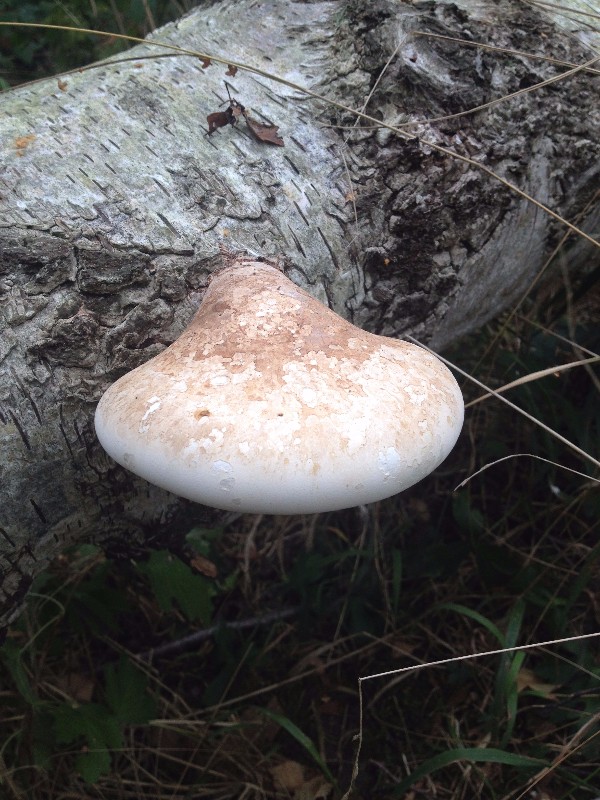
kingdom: Fungi
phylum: Basidiomycota
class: Agaricomycetes
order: Polyporales
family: Fomitopsidaceae
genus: Fomitopsis
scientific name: Fomitopsis betulina
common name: birkeporesvamp
